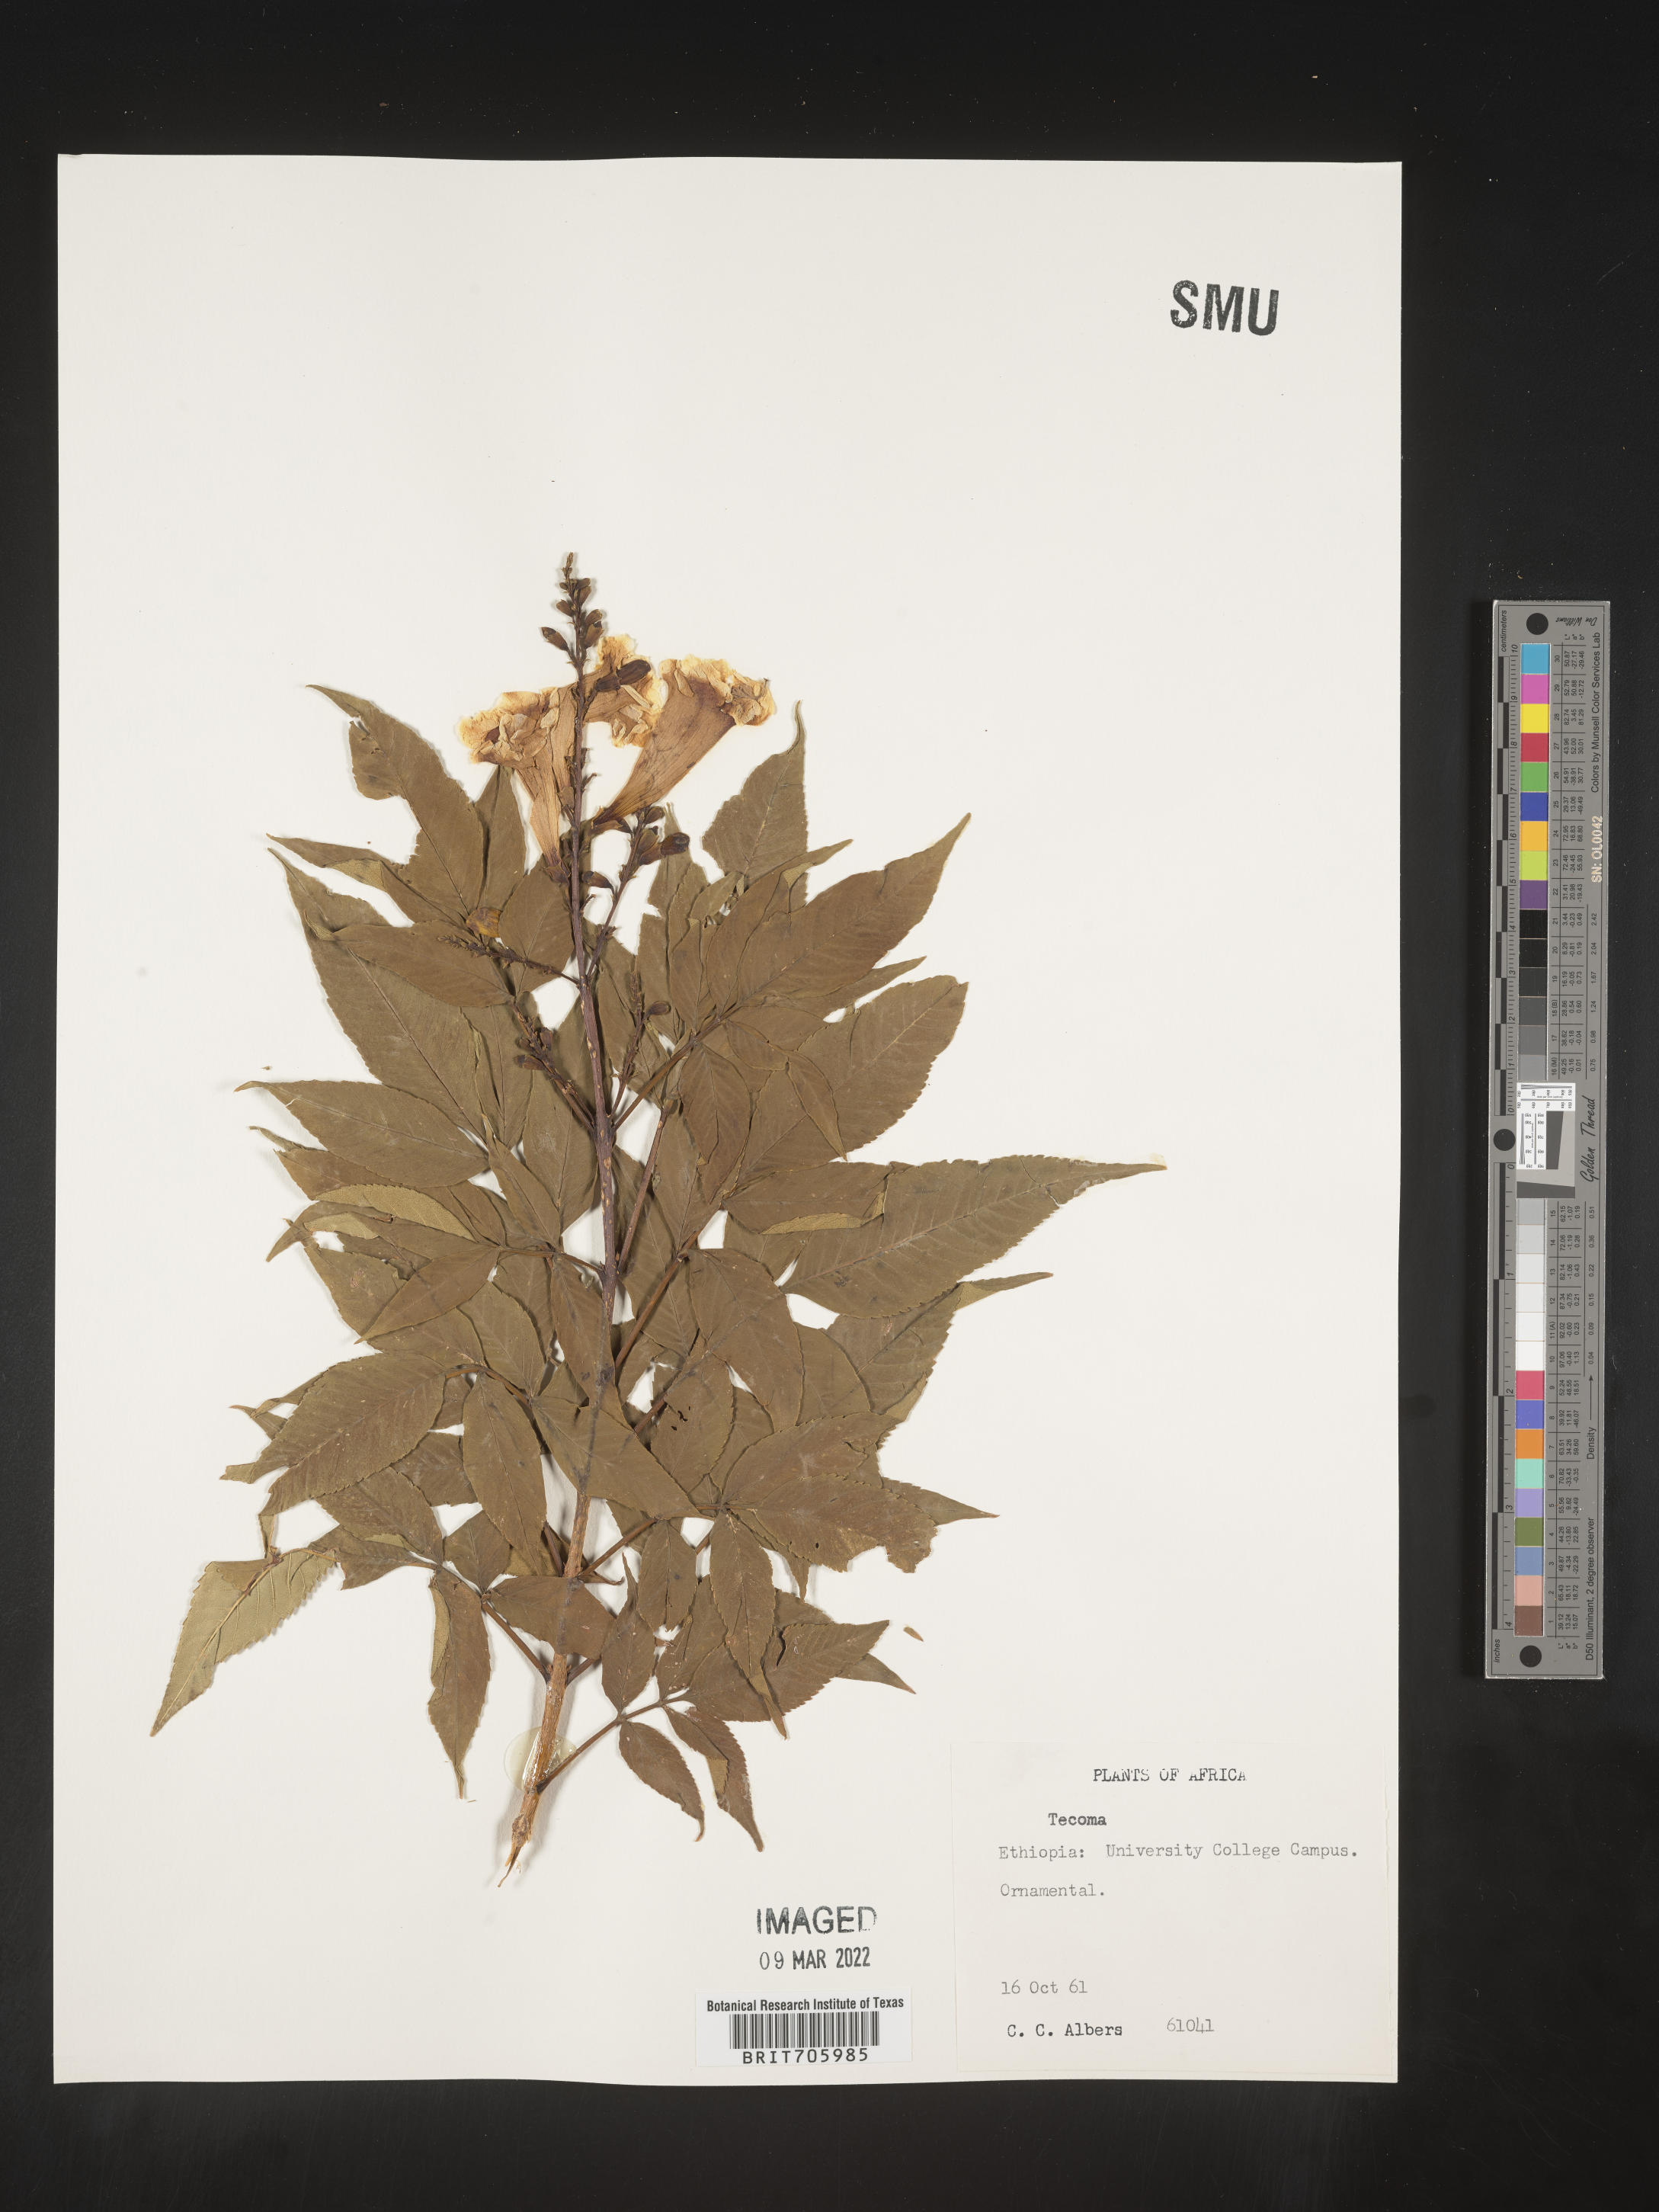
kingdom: Plantae
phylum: Tracheophyta
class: Magnoliopsida
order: Lamiales
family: Bignoniaceae
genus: Tecoma
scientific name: Tecoma
